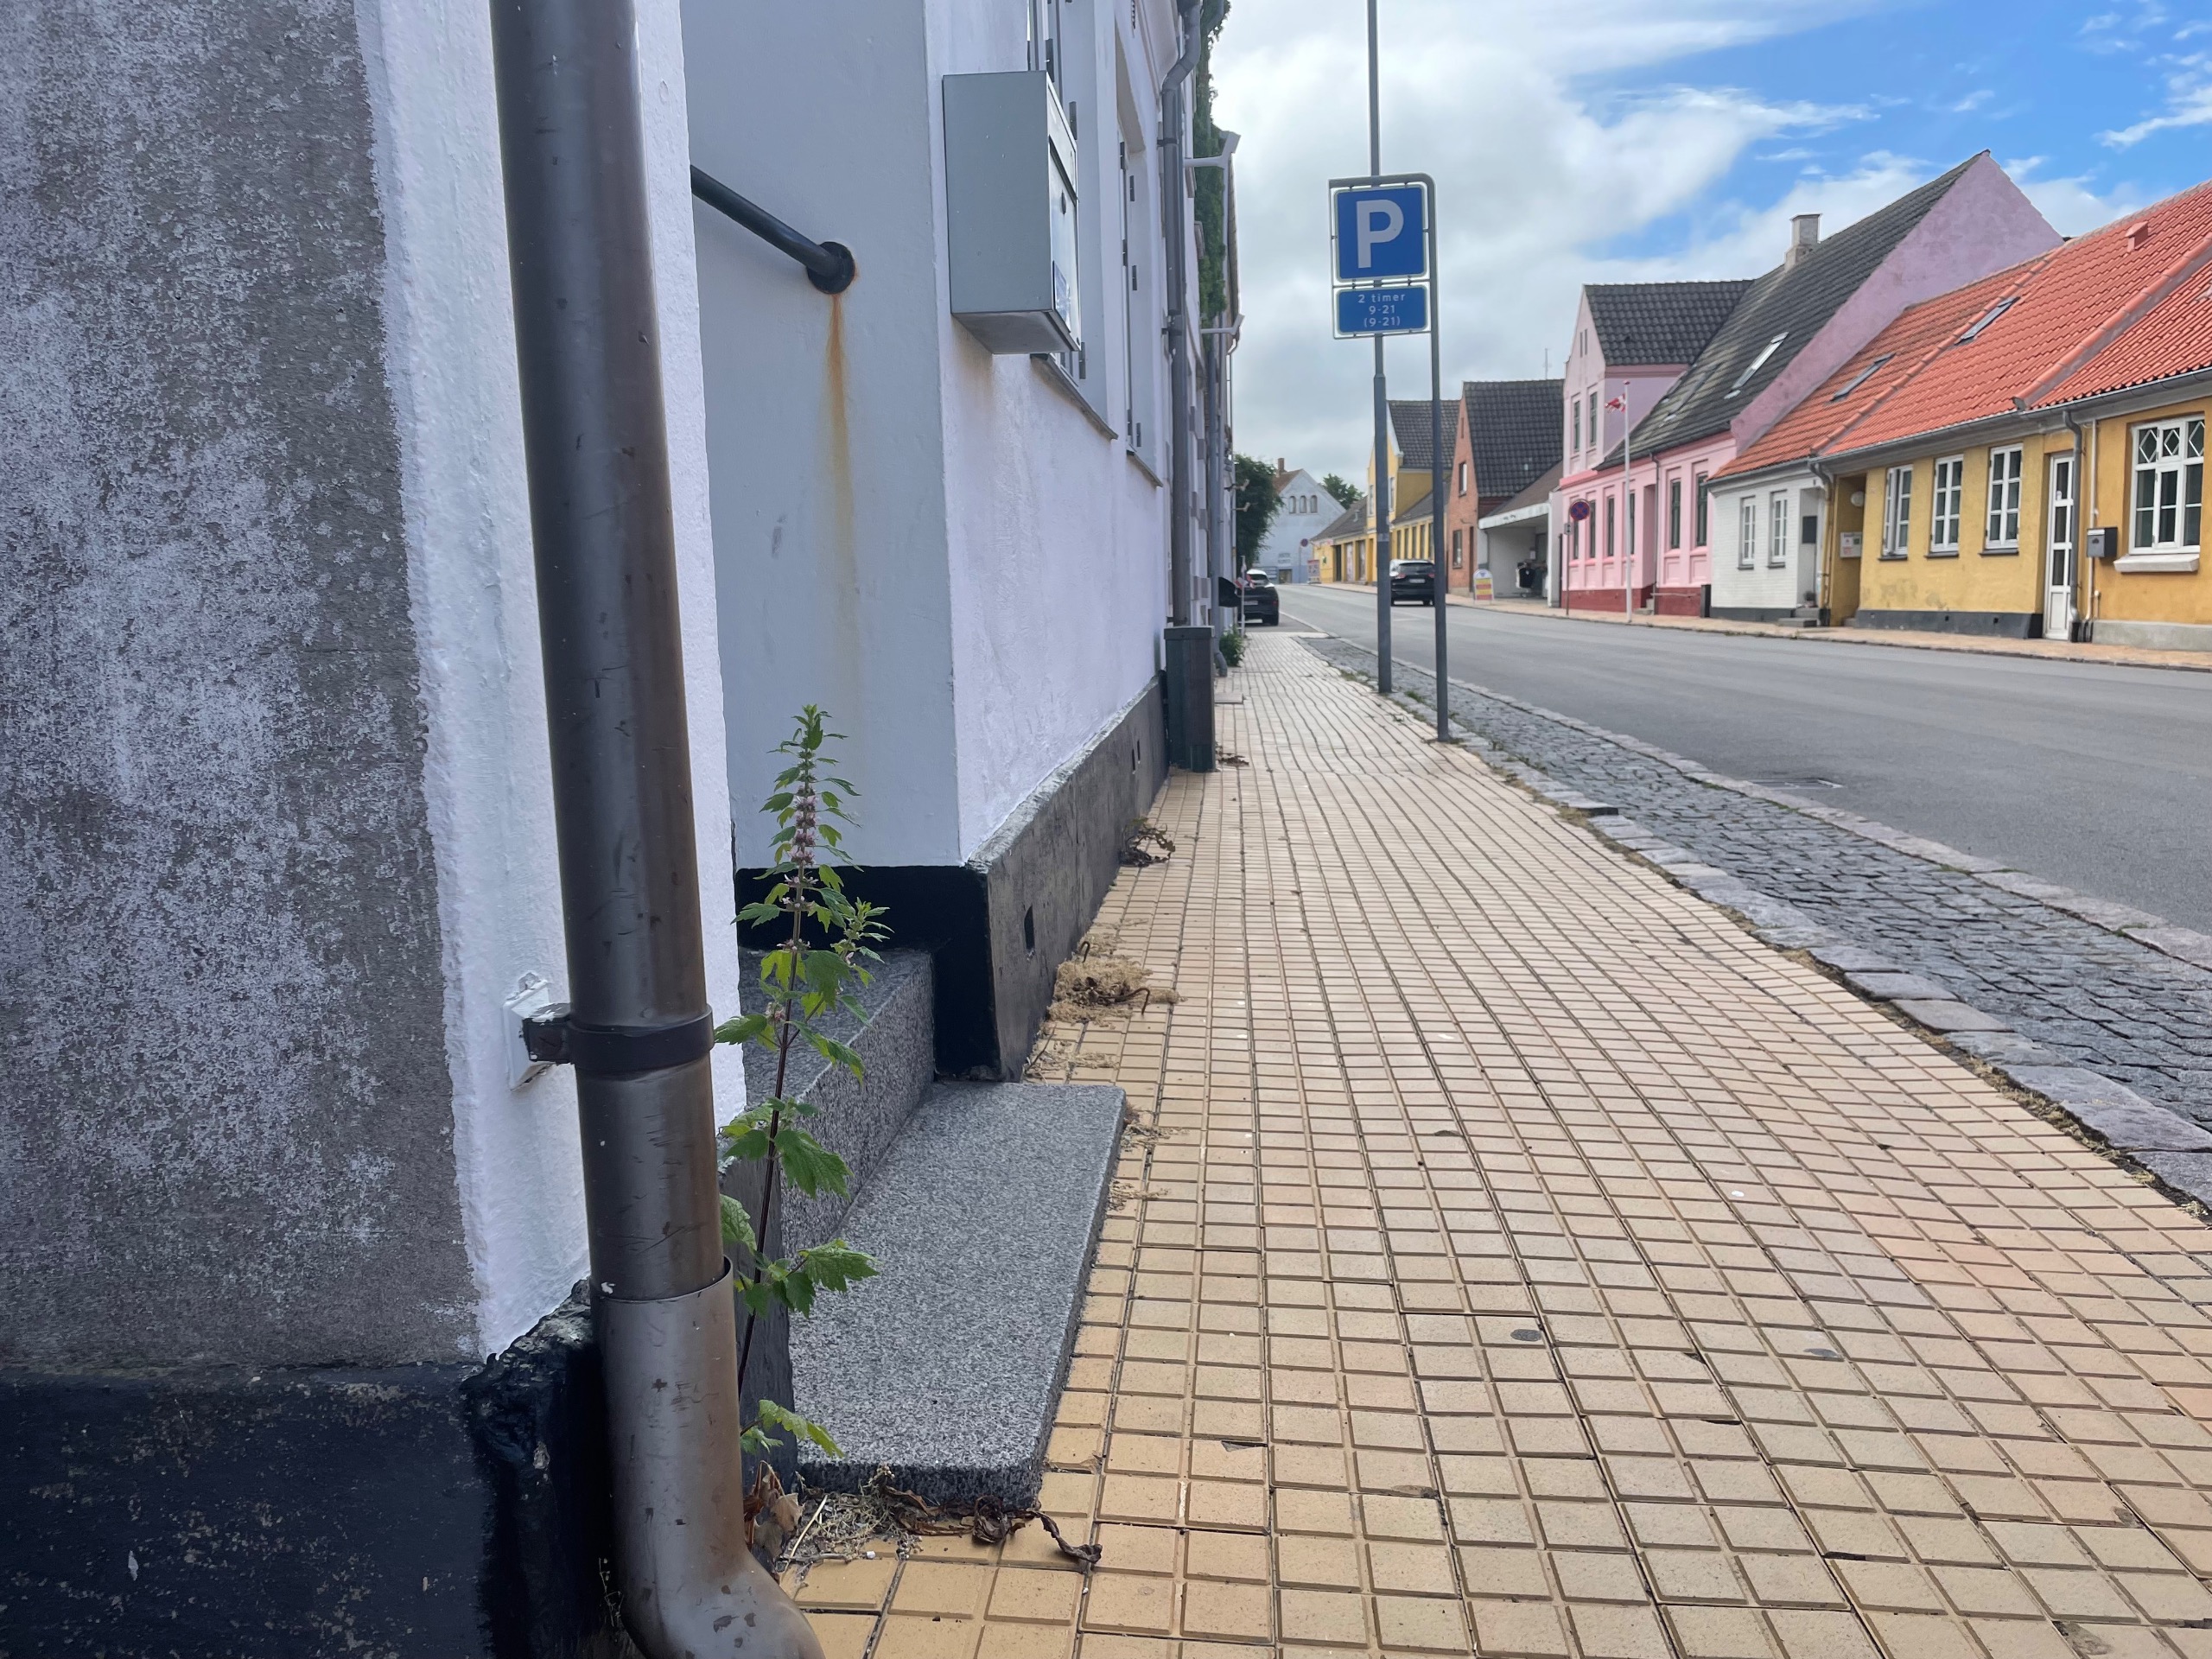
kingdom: Plantae
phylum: Tracheophyta
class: Magnoliopsida
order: Lamiales
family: Lamiaceae
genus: Leonurus
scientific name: Leonurus cardiaca
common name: Hjertespand
